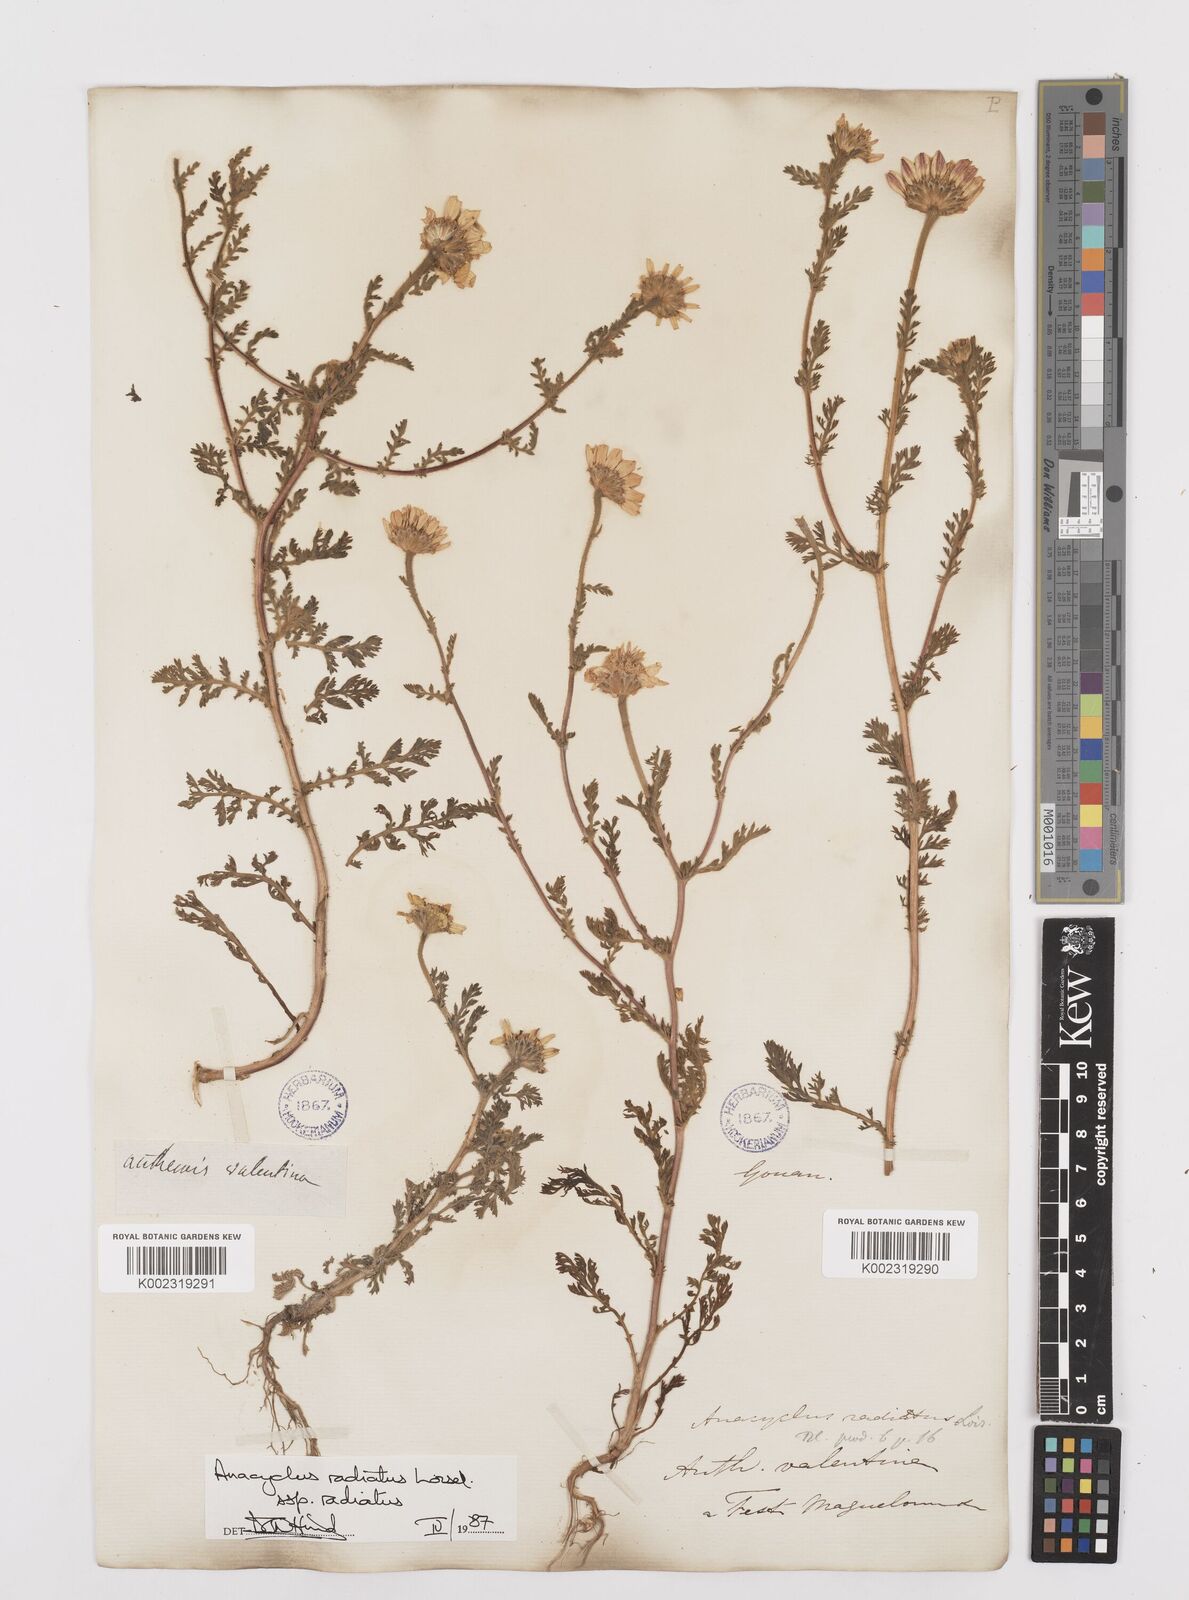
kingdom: Plantae
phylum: Tracheophyta
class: Magnoliopsida
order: Asterales
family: Asteraceae
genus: Anacyclus
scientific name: Anacyclus radiatus
